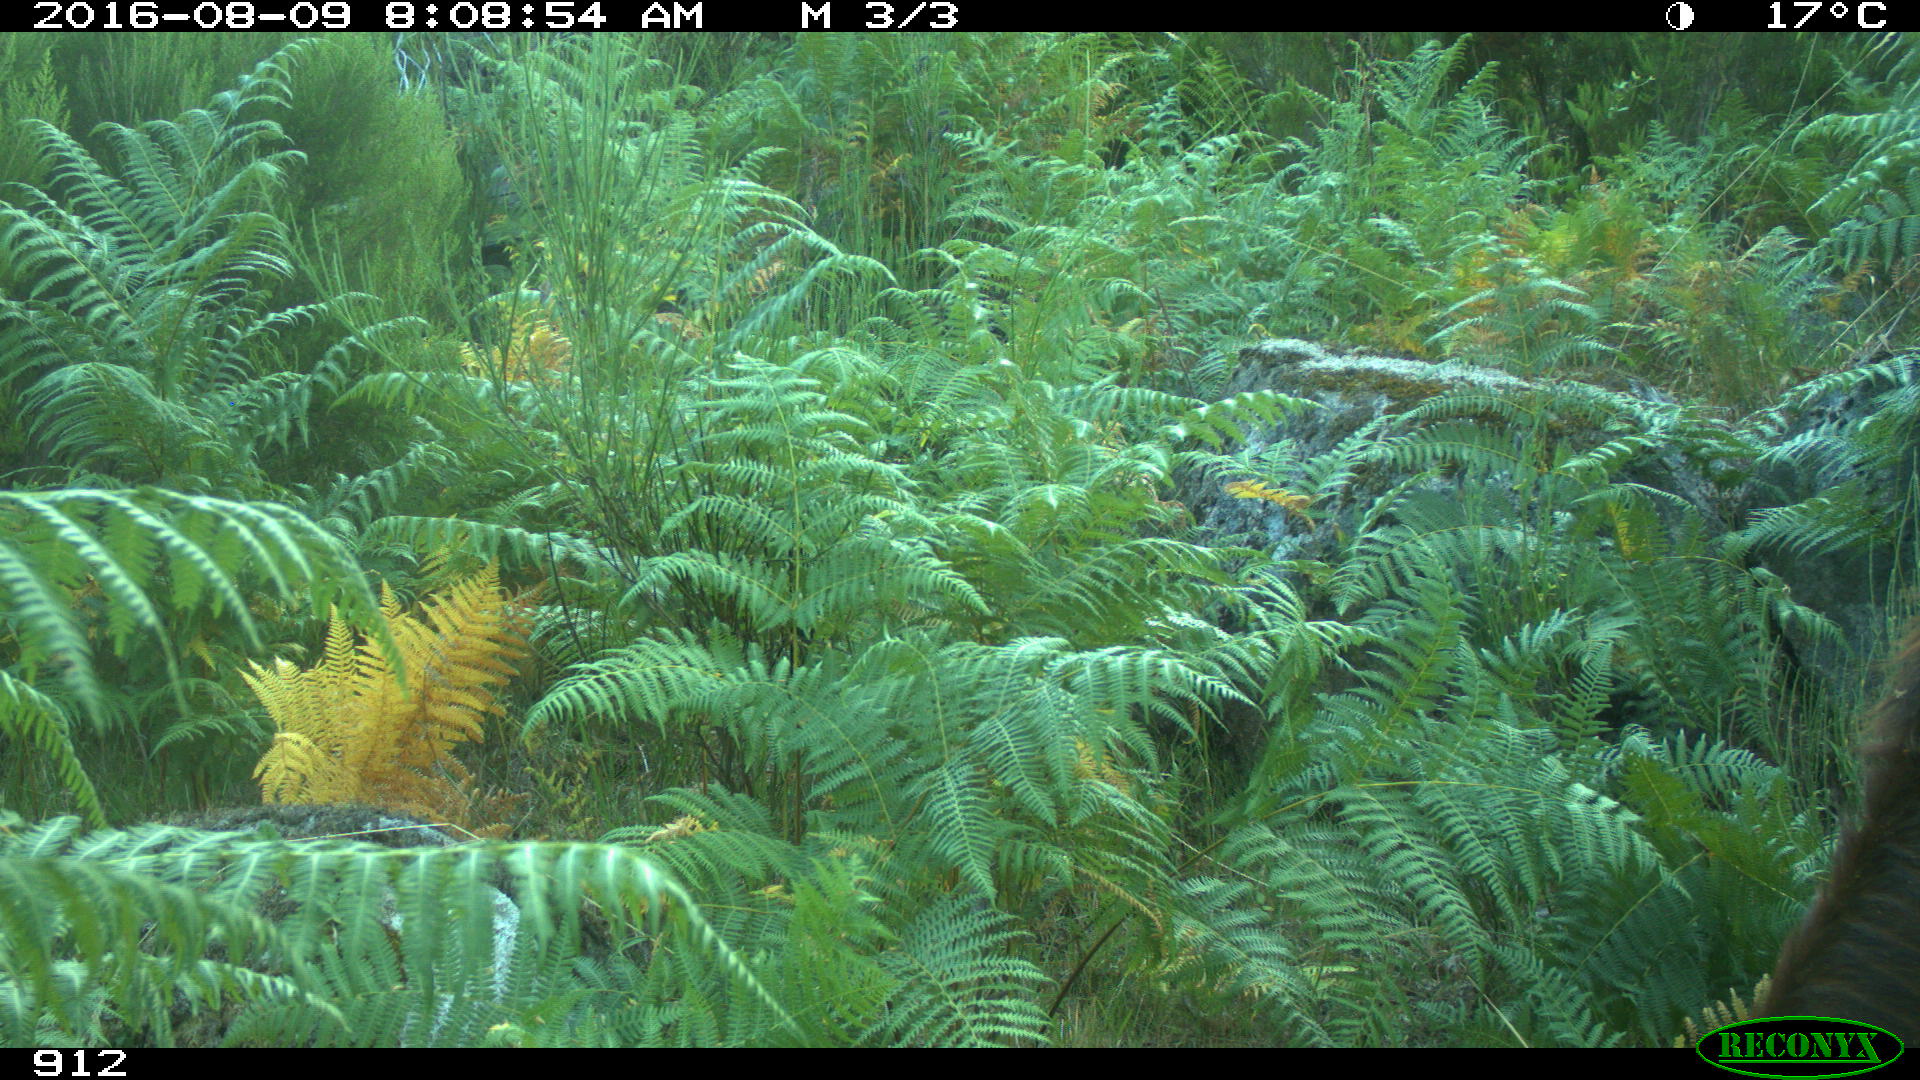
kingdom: Animalia
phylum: Chordata
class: Mammalia
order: Artiodactyla
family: Bovidae
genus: Bos
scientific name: Bos taurus
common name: Domesticated cattle
